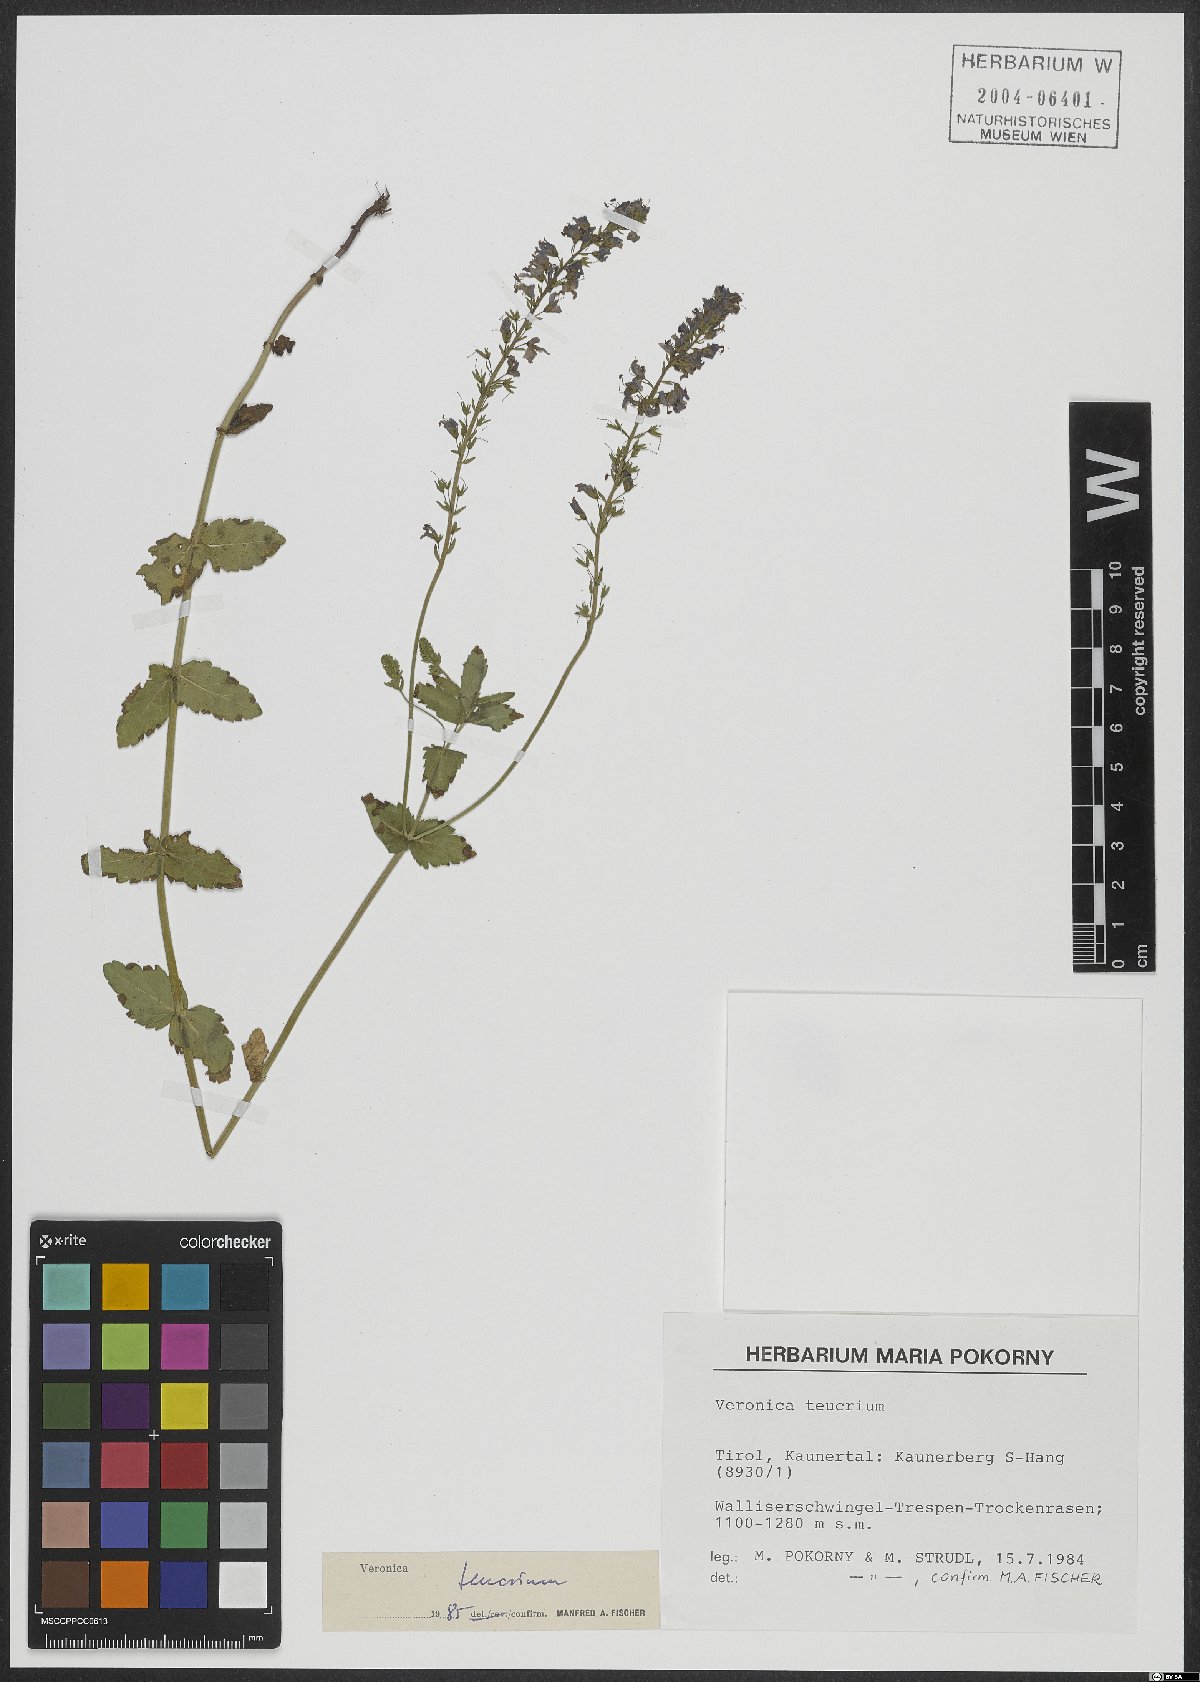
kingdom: Plantae
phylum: Tracheophyta
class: Magnoliopsida
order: Lamiales
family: Plantaginaceae
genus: Veronica
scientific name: Veronica teucrium
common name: Large speedwell
